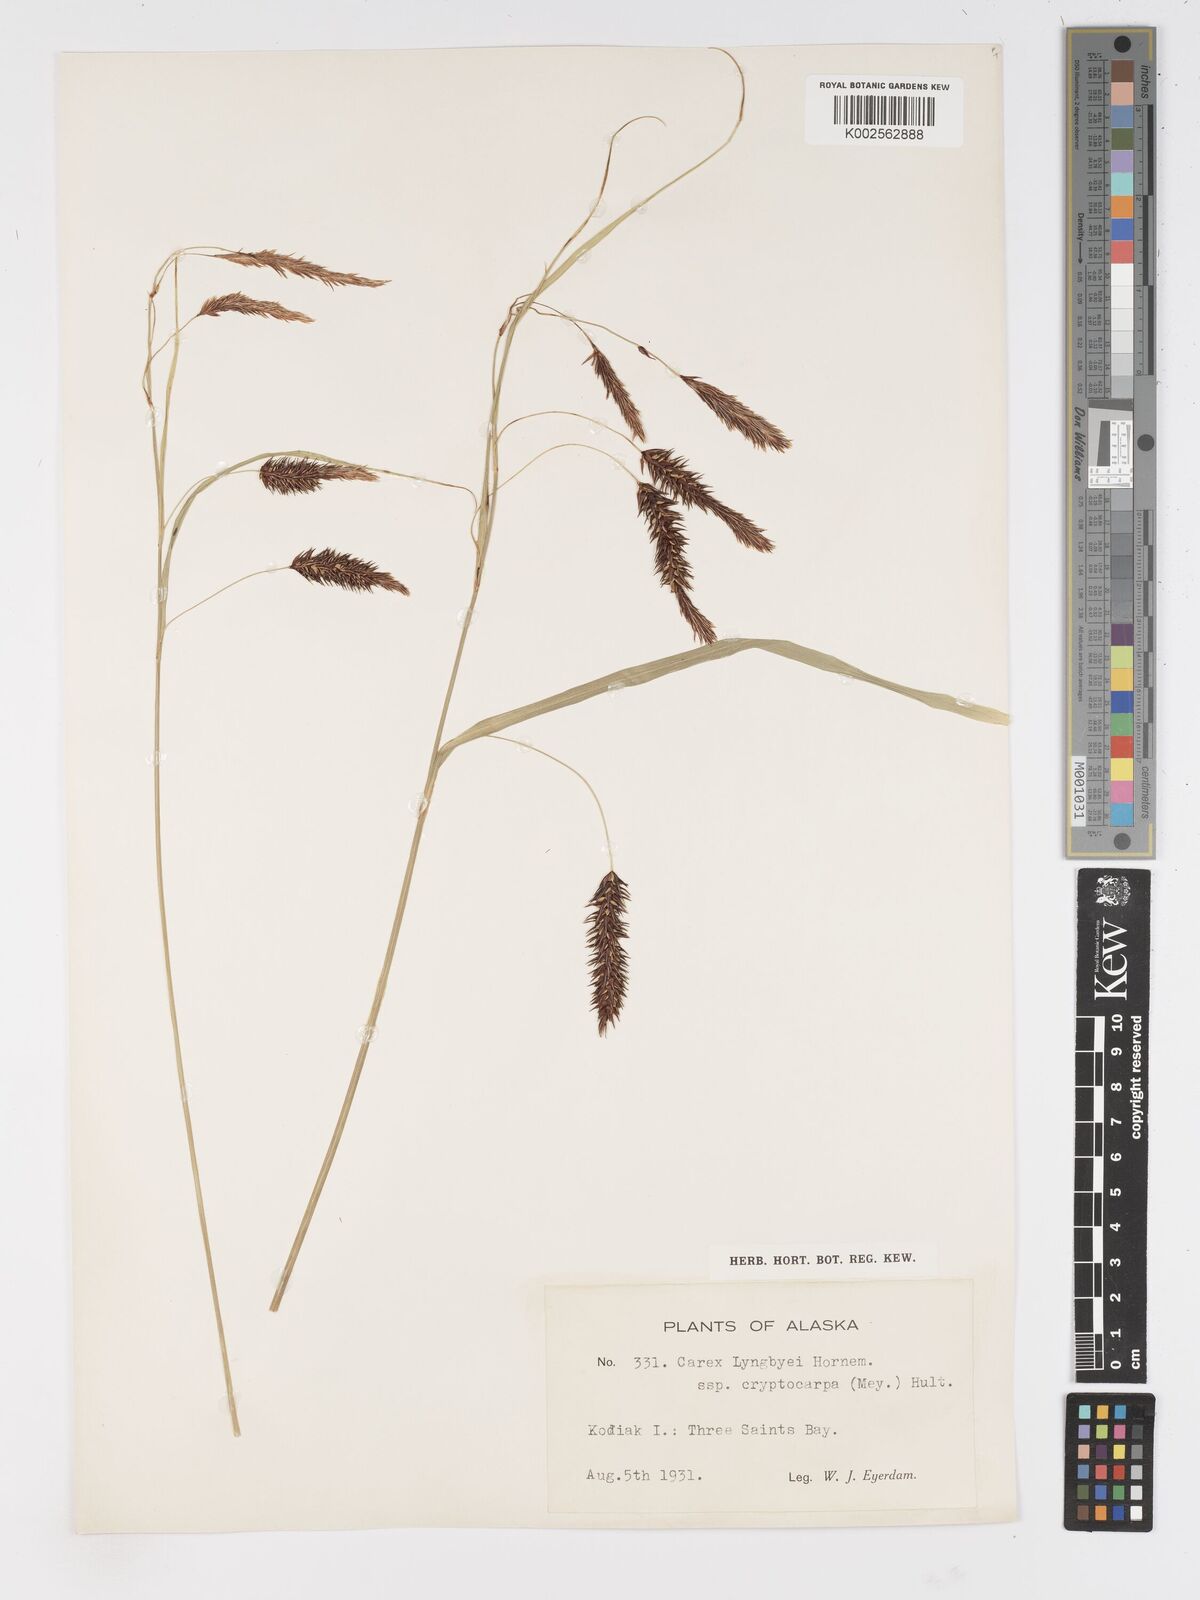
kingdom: Plantae
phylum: Tracheophyta
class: Liliopsida
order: Poales
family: Cyperaceae
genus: Carex
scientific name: Carex lyngbyei
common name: Lyngbye's sedge
